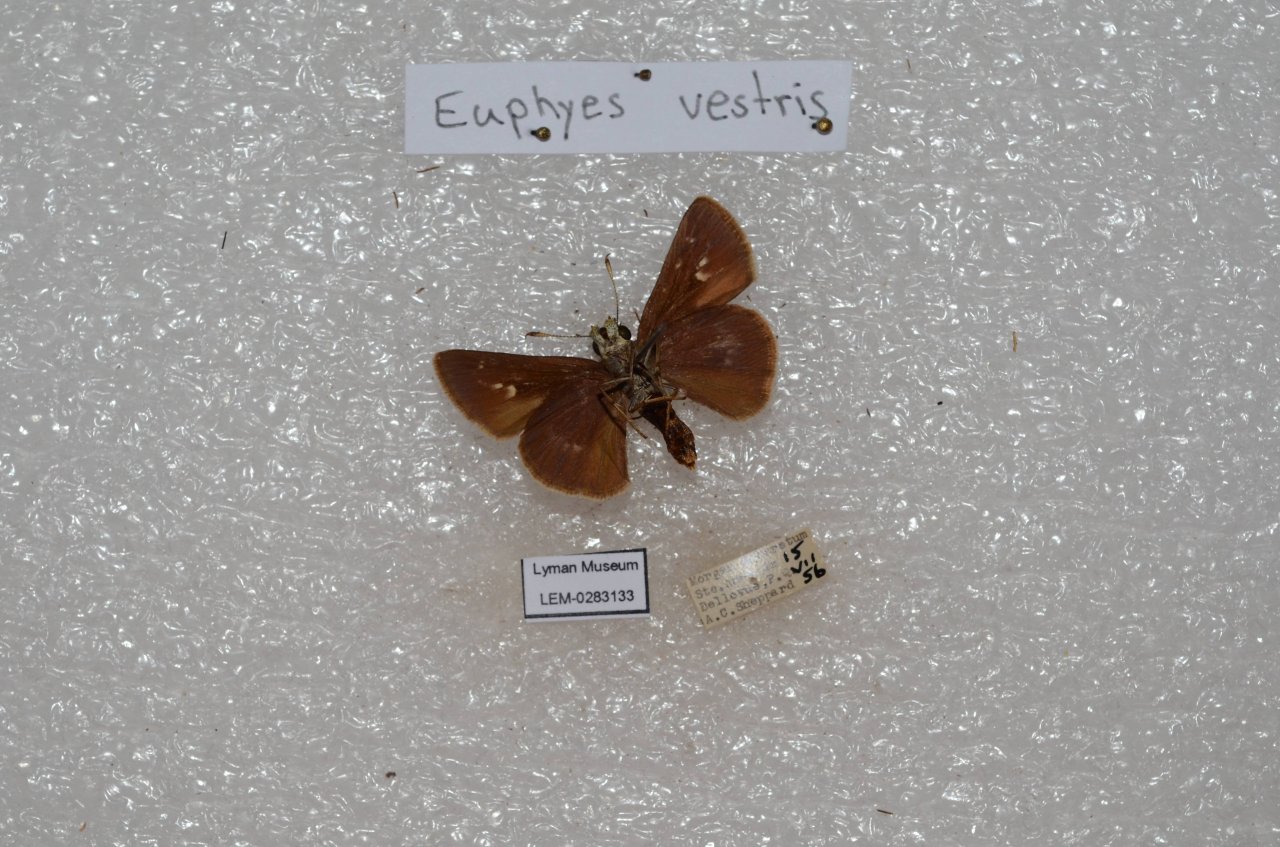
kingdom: Animalia
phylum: Arthropoda
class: Insecta
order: Lepidoptera
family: Hesperiidae
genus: Euphyes
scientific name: Euphyes vestris
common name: Dun Skipper
